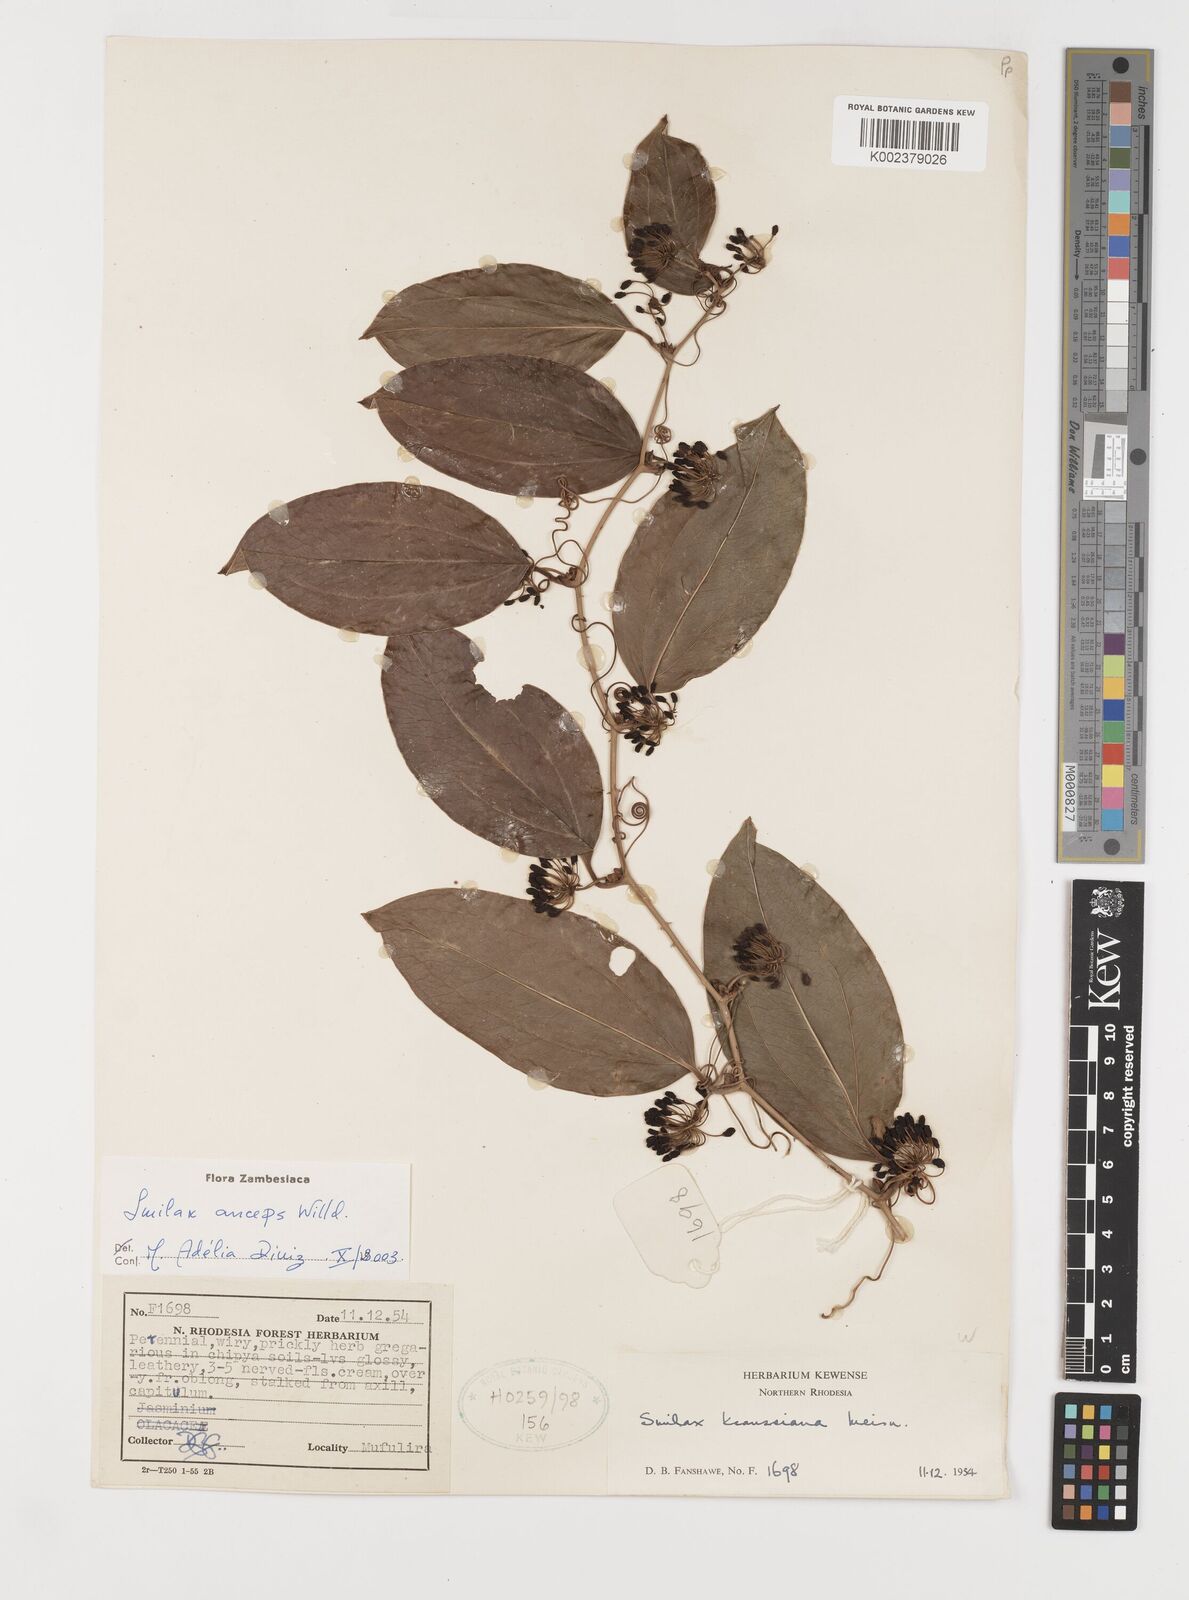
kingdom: Plantae
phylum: Tracheophyta
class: Liliopsida
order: Liliales
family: Smilacaceae
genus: Smilax
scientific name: Smilax anceps
